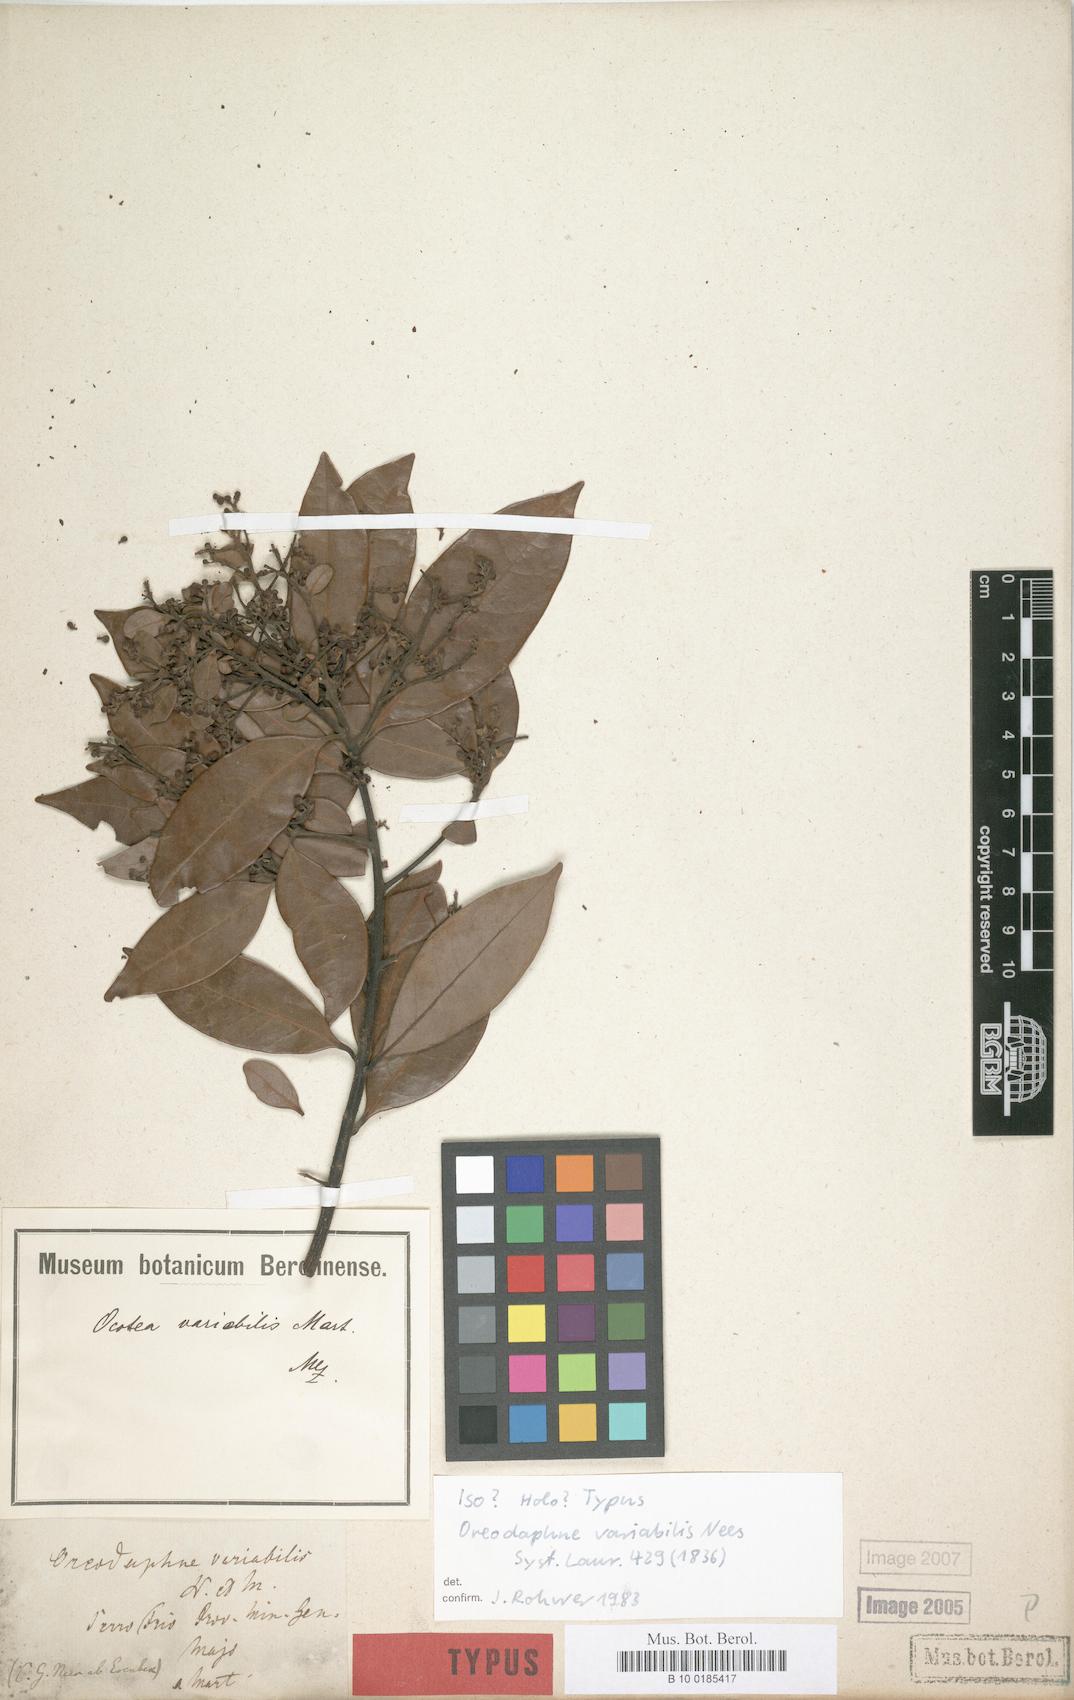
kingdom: Plantae
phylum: Tracheophyta
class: Magnoliopsida
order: Laurales
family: Lauraceae
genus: Ocotea
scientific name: Ocotea lancifolia
